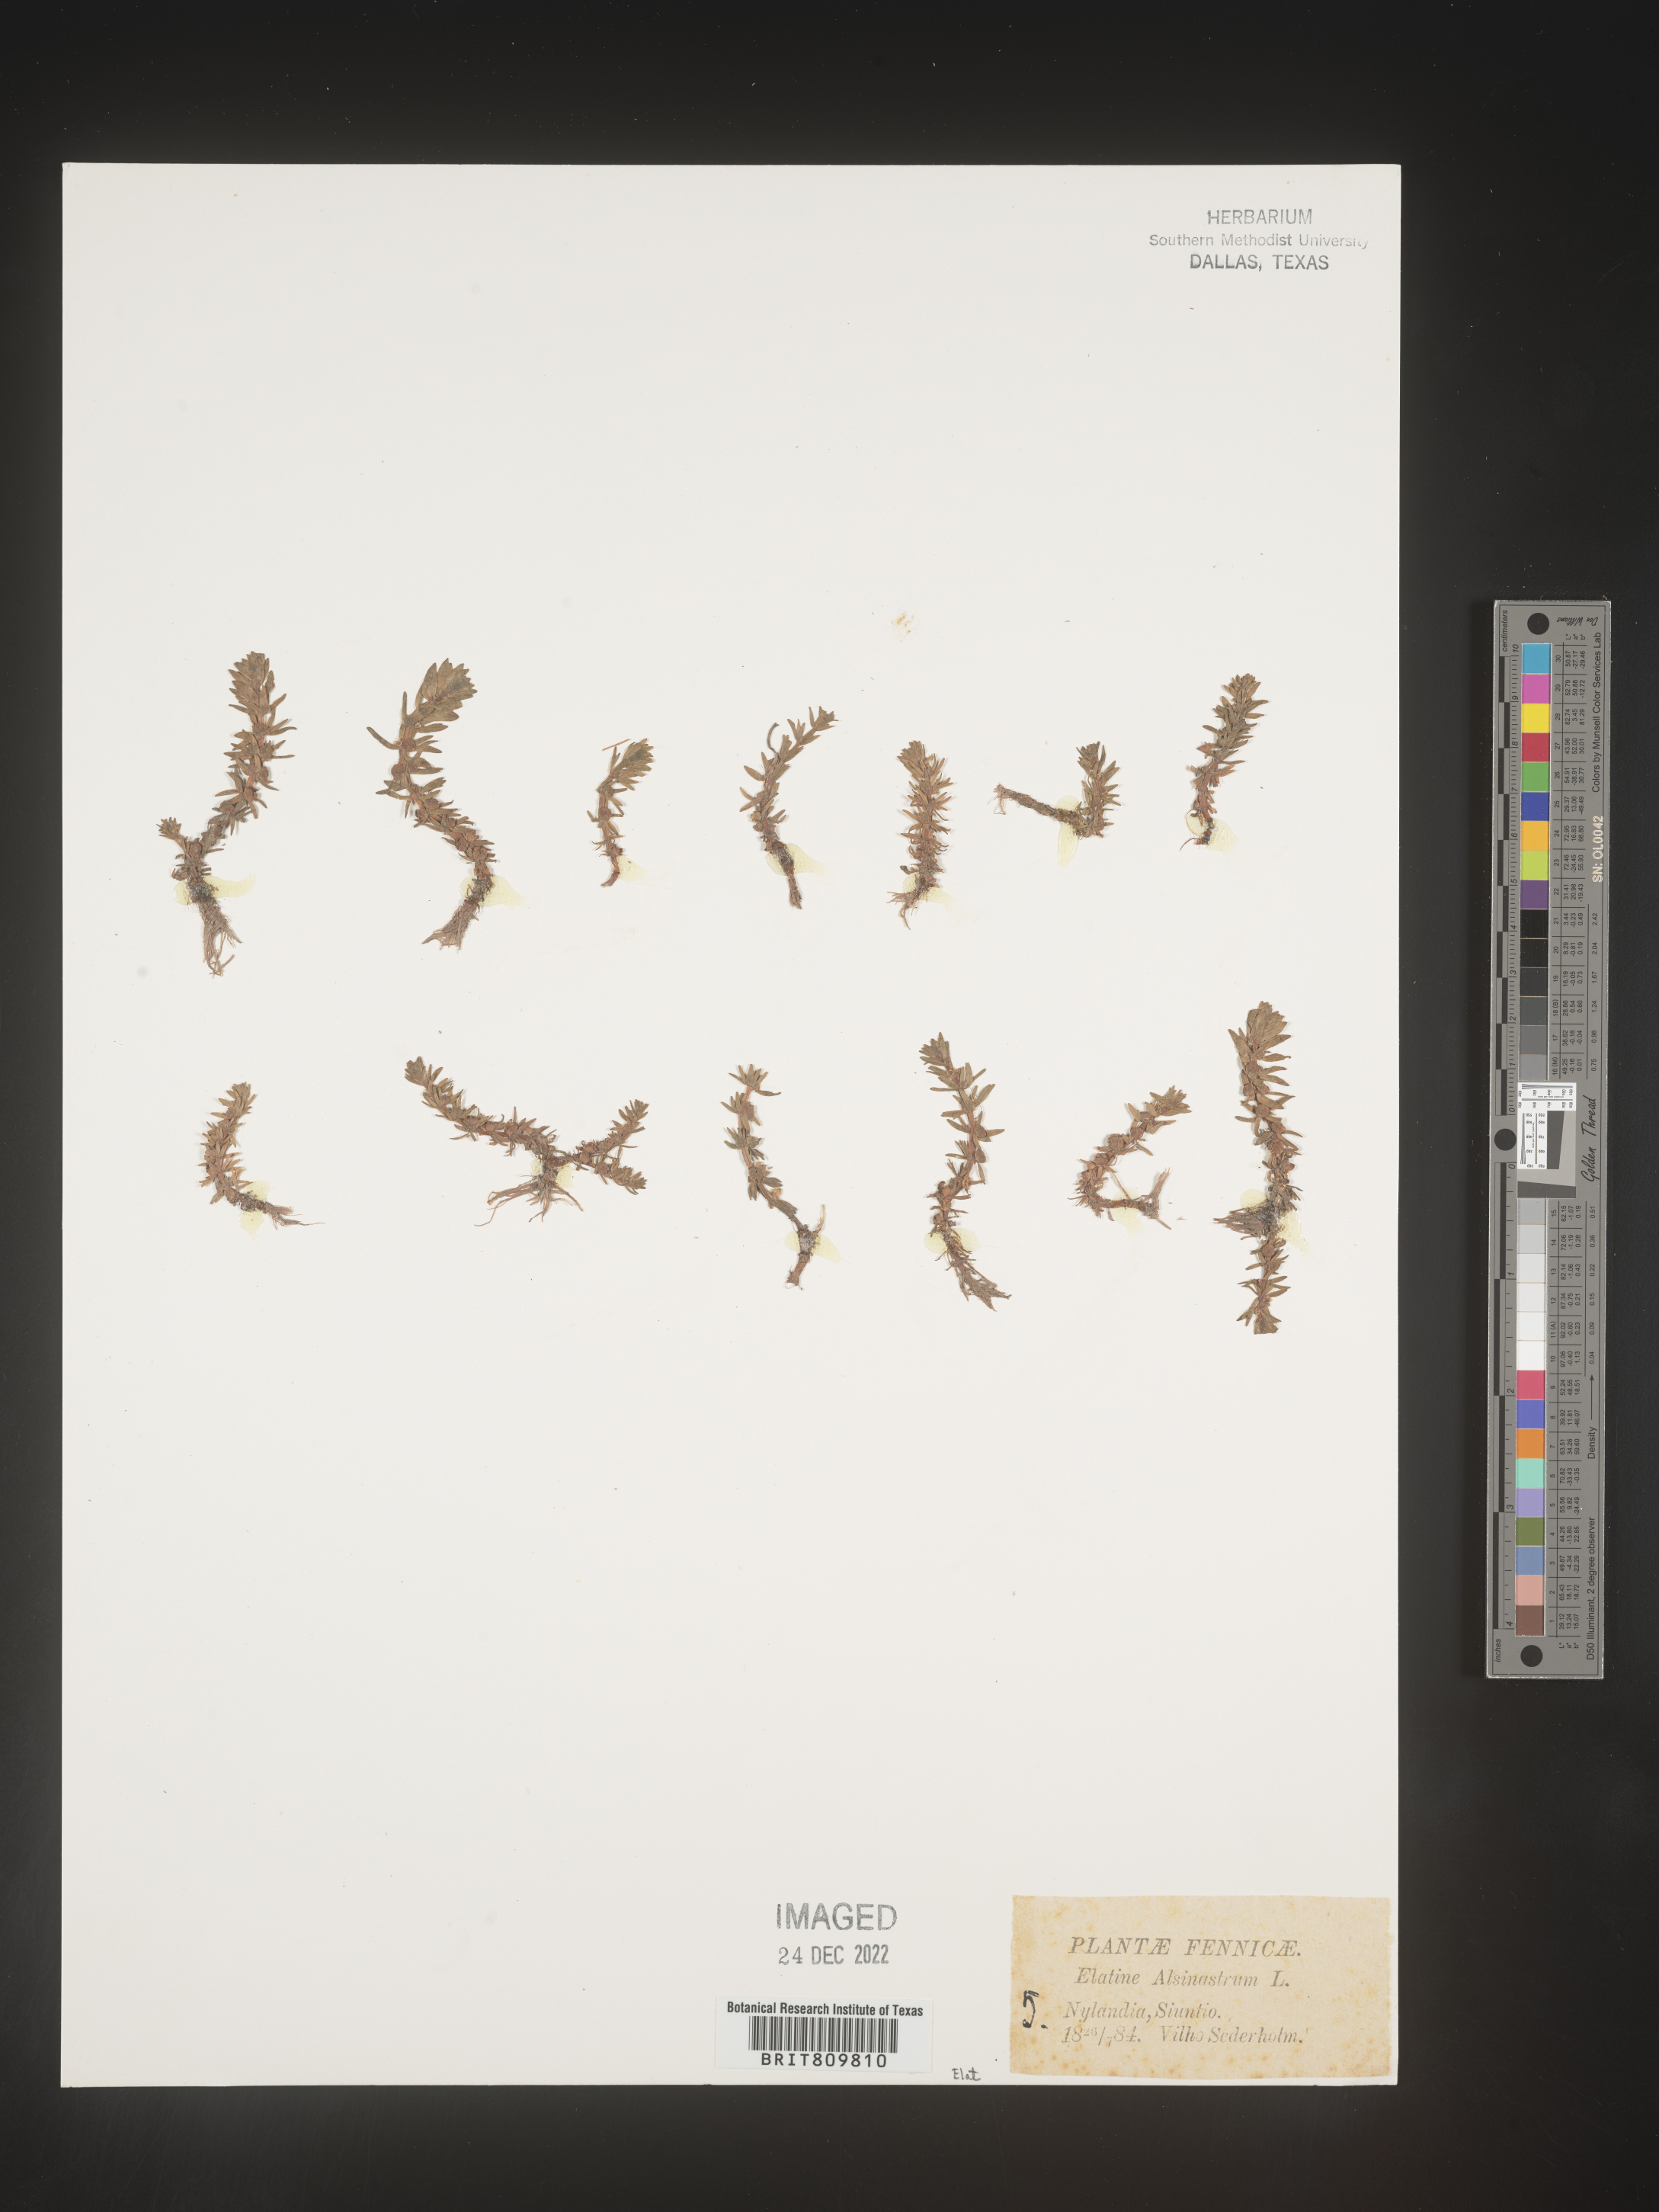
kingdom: Plantae
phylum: Tracheophyta
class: Magnoliopsida
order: Malpighiales
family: Elatinaceae
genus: Elatine
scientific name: Elatine
